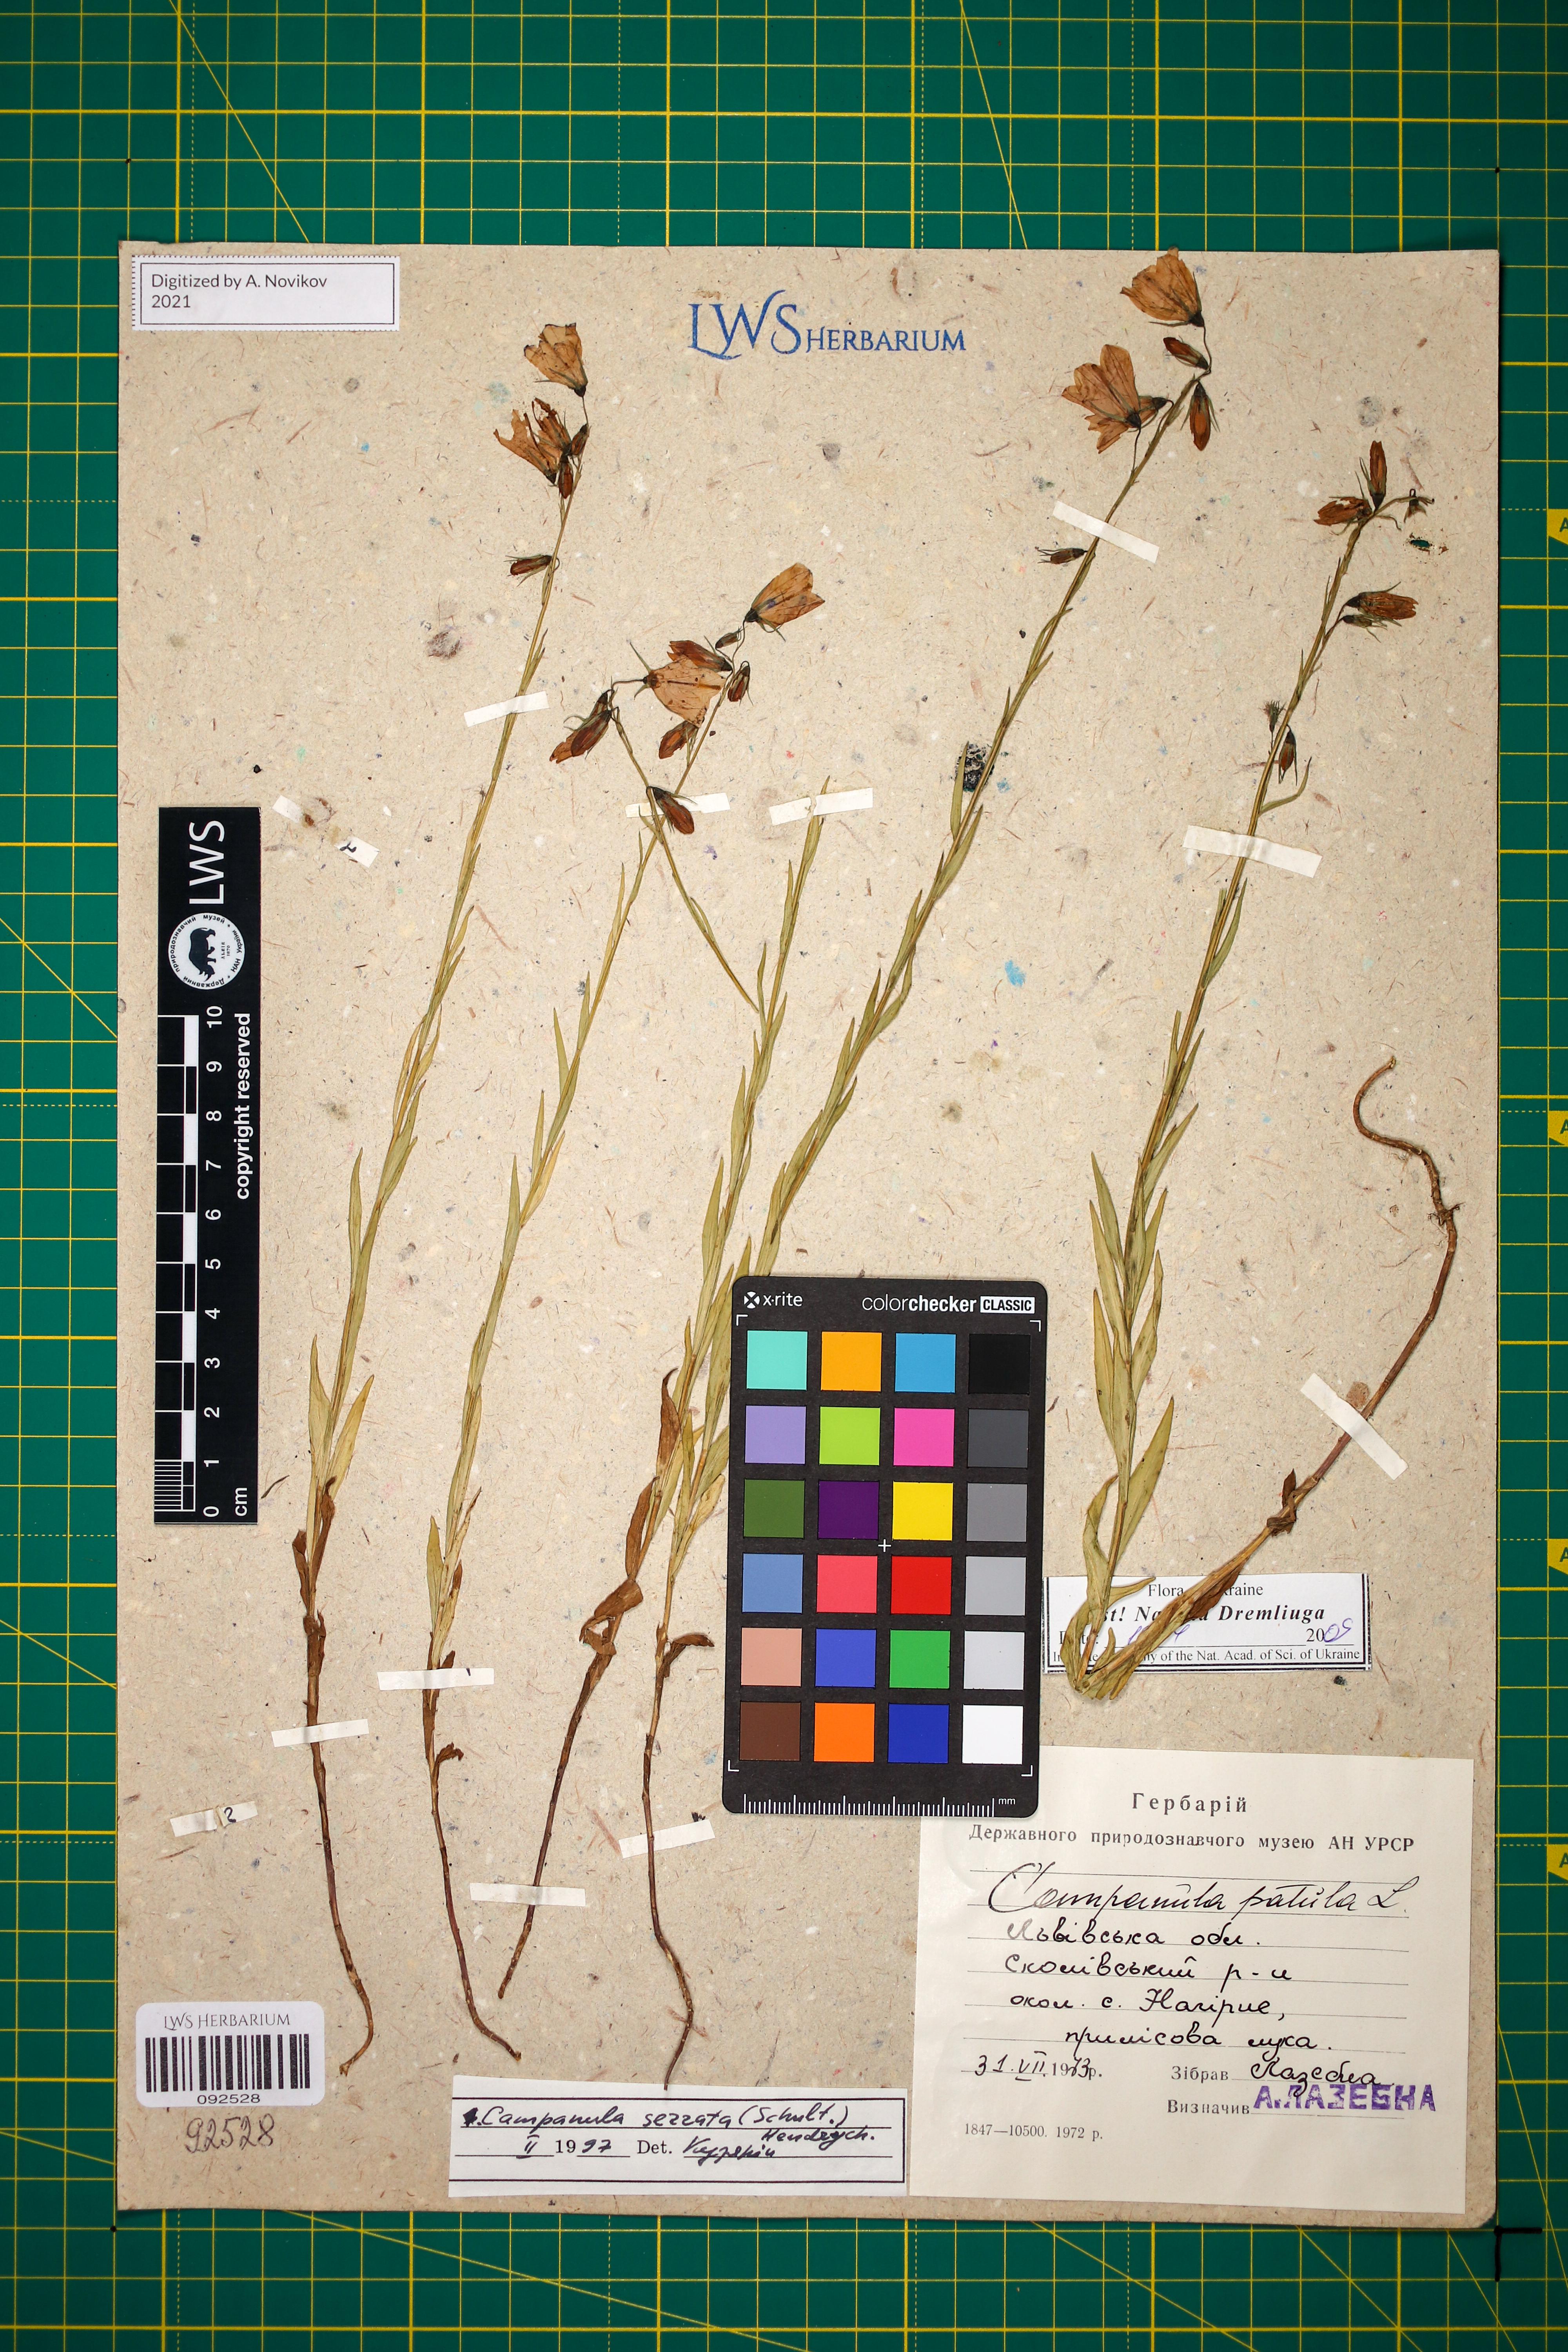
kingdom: Plantae
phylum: Tracheophyta
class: Magnoliopsida
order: Asterales
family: Campanulaceae
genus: Campanula
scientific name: Campanula serrata
